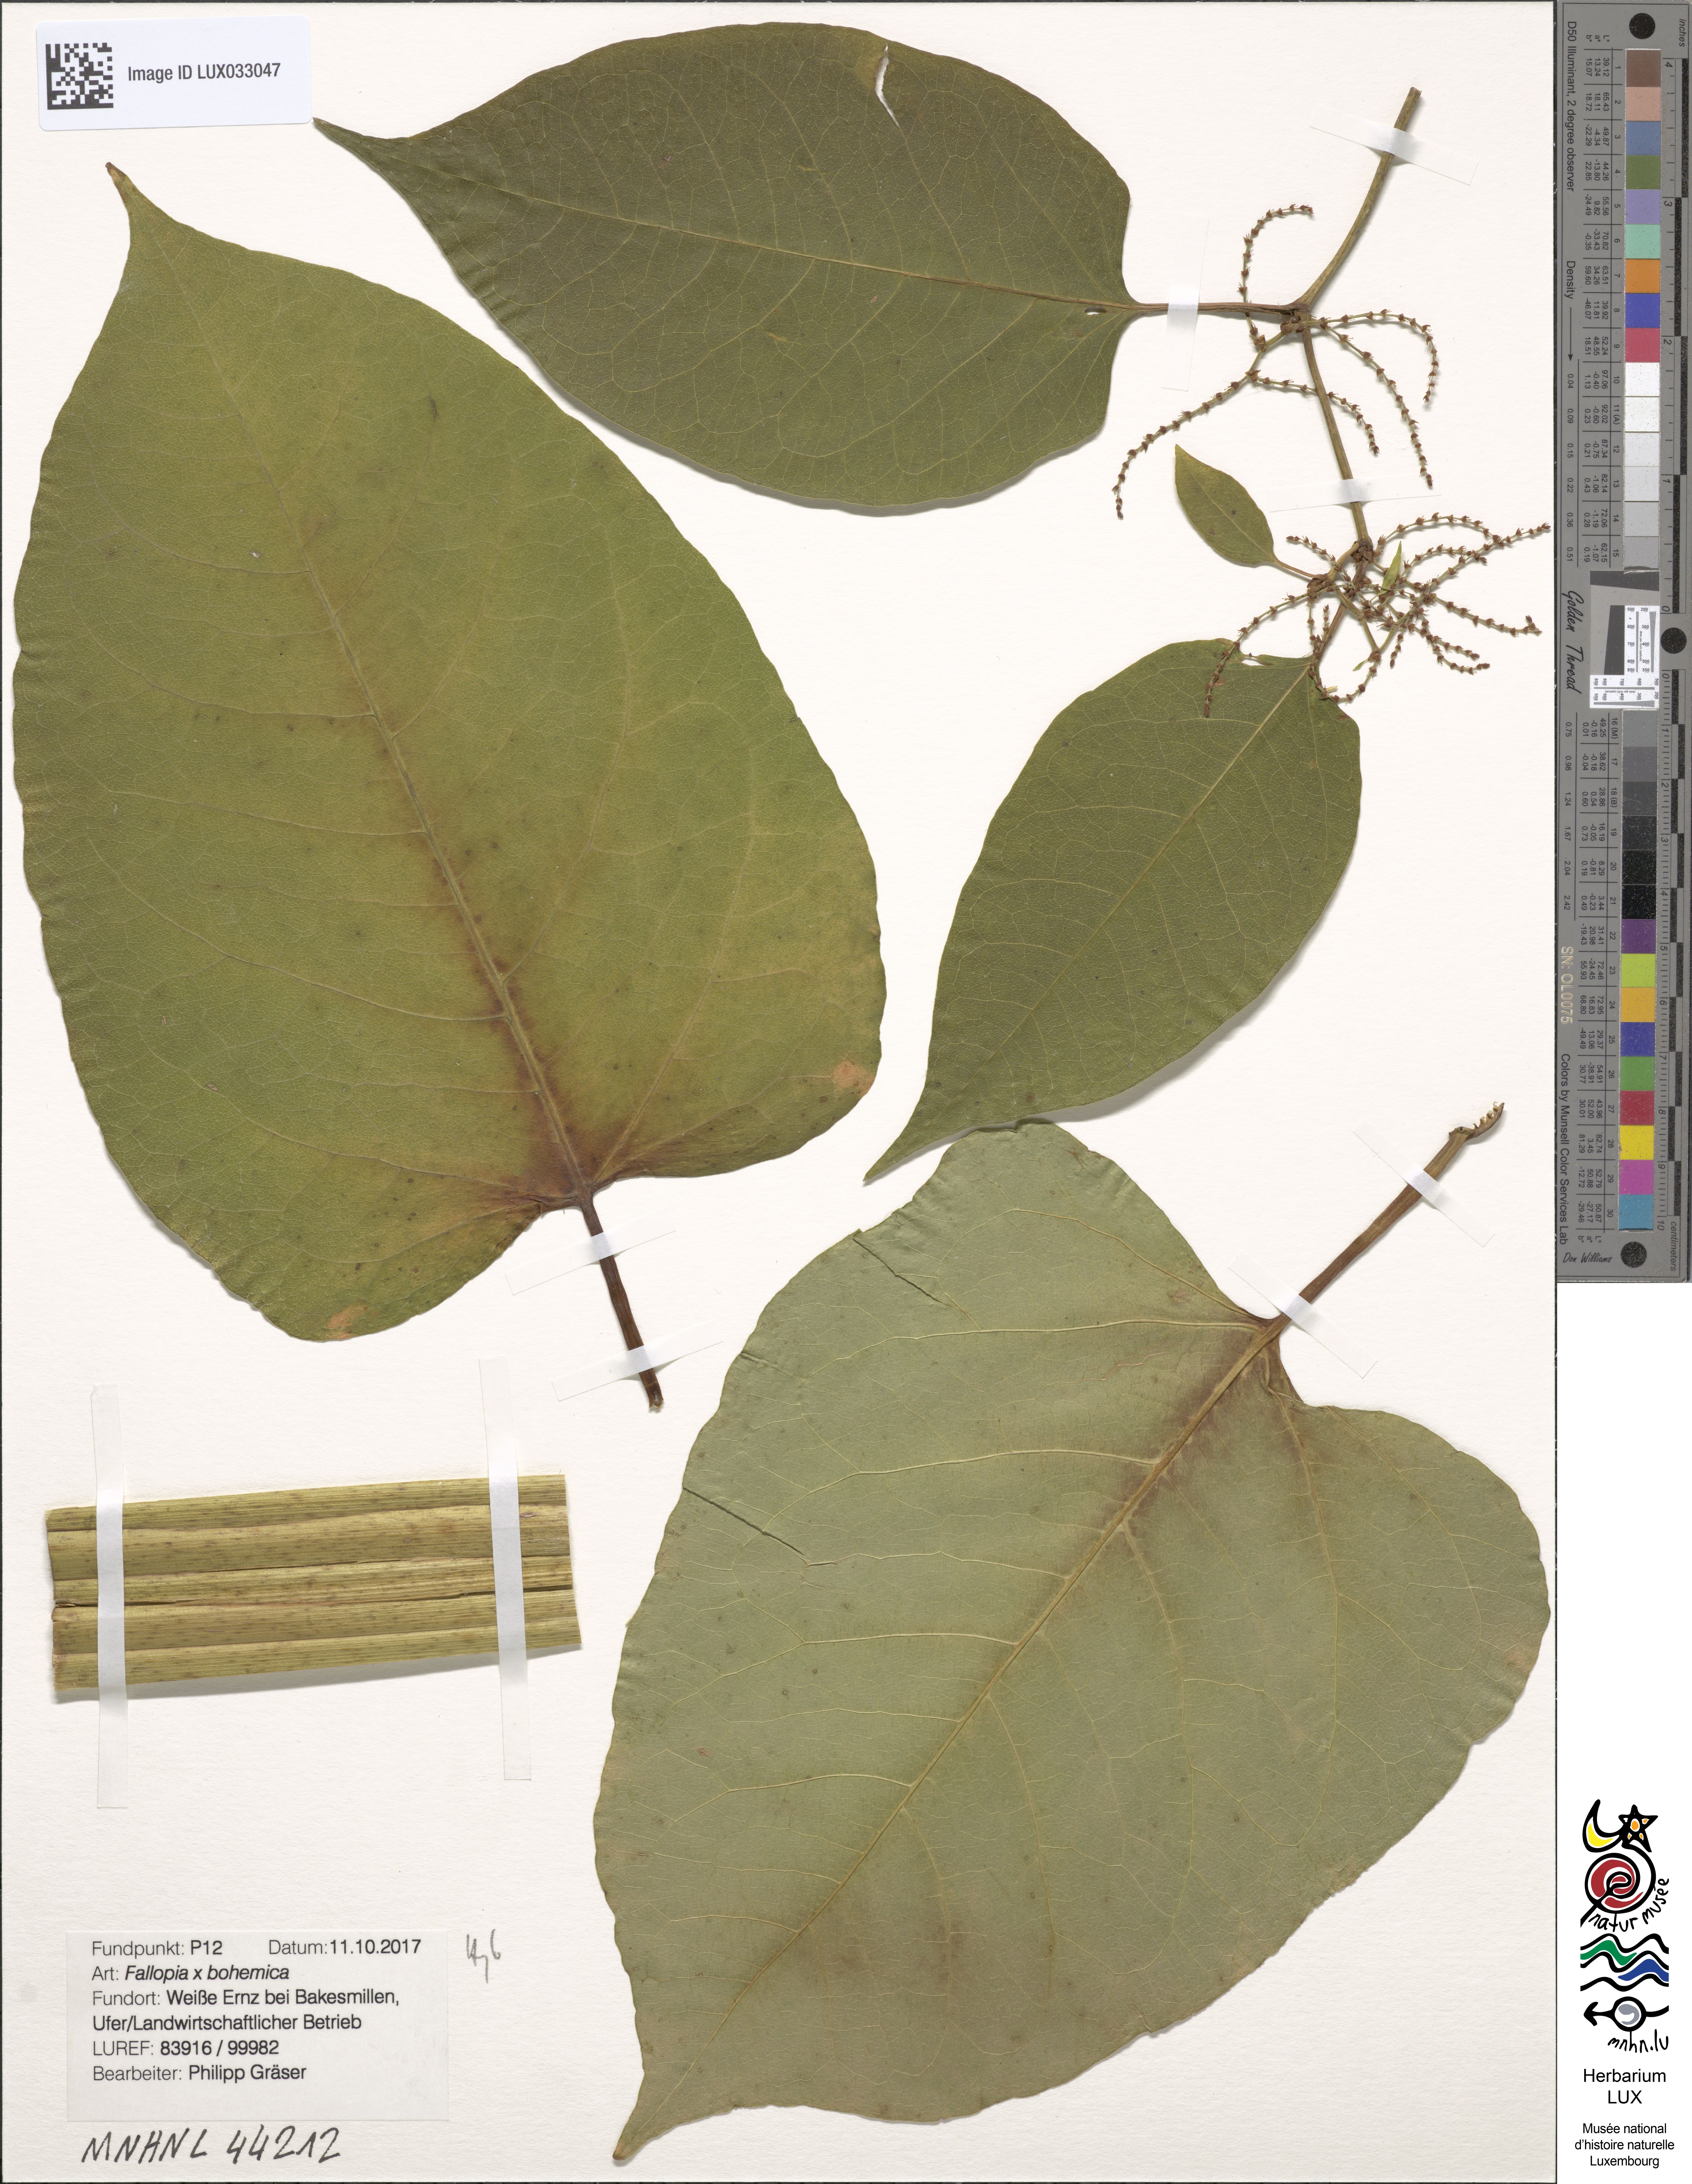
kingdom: Plantae
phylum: Tracheophyta
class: Magnoliopsida
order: Caryophyllales
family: Polygonaceae
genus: Reynoutria
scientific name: Reynoutria bohemica
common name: Bohemian knotweed
